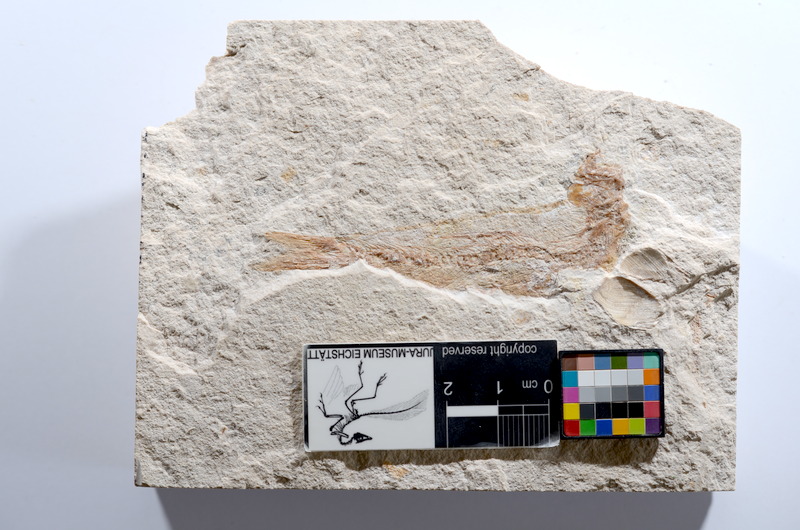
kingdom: Animalia
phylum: Chordata
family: Ascalaboidae
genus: Tharsis
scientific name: Tharsis dubius
